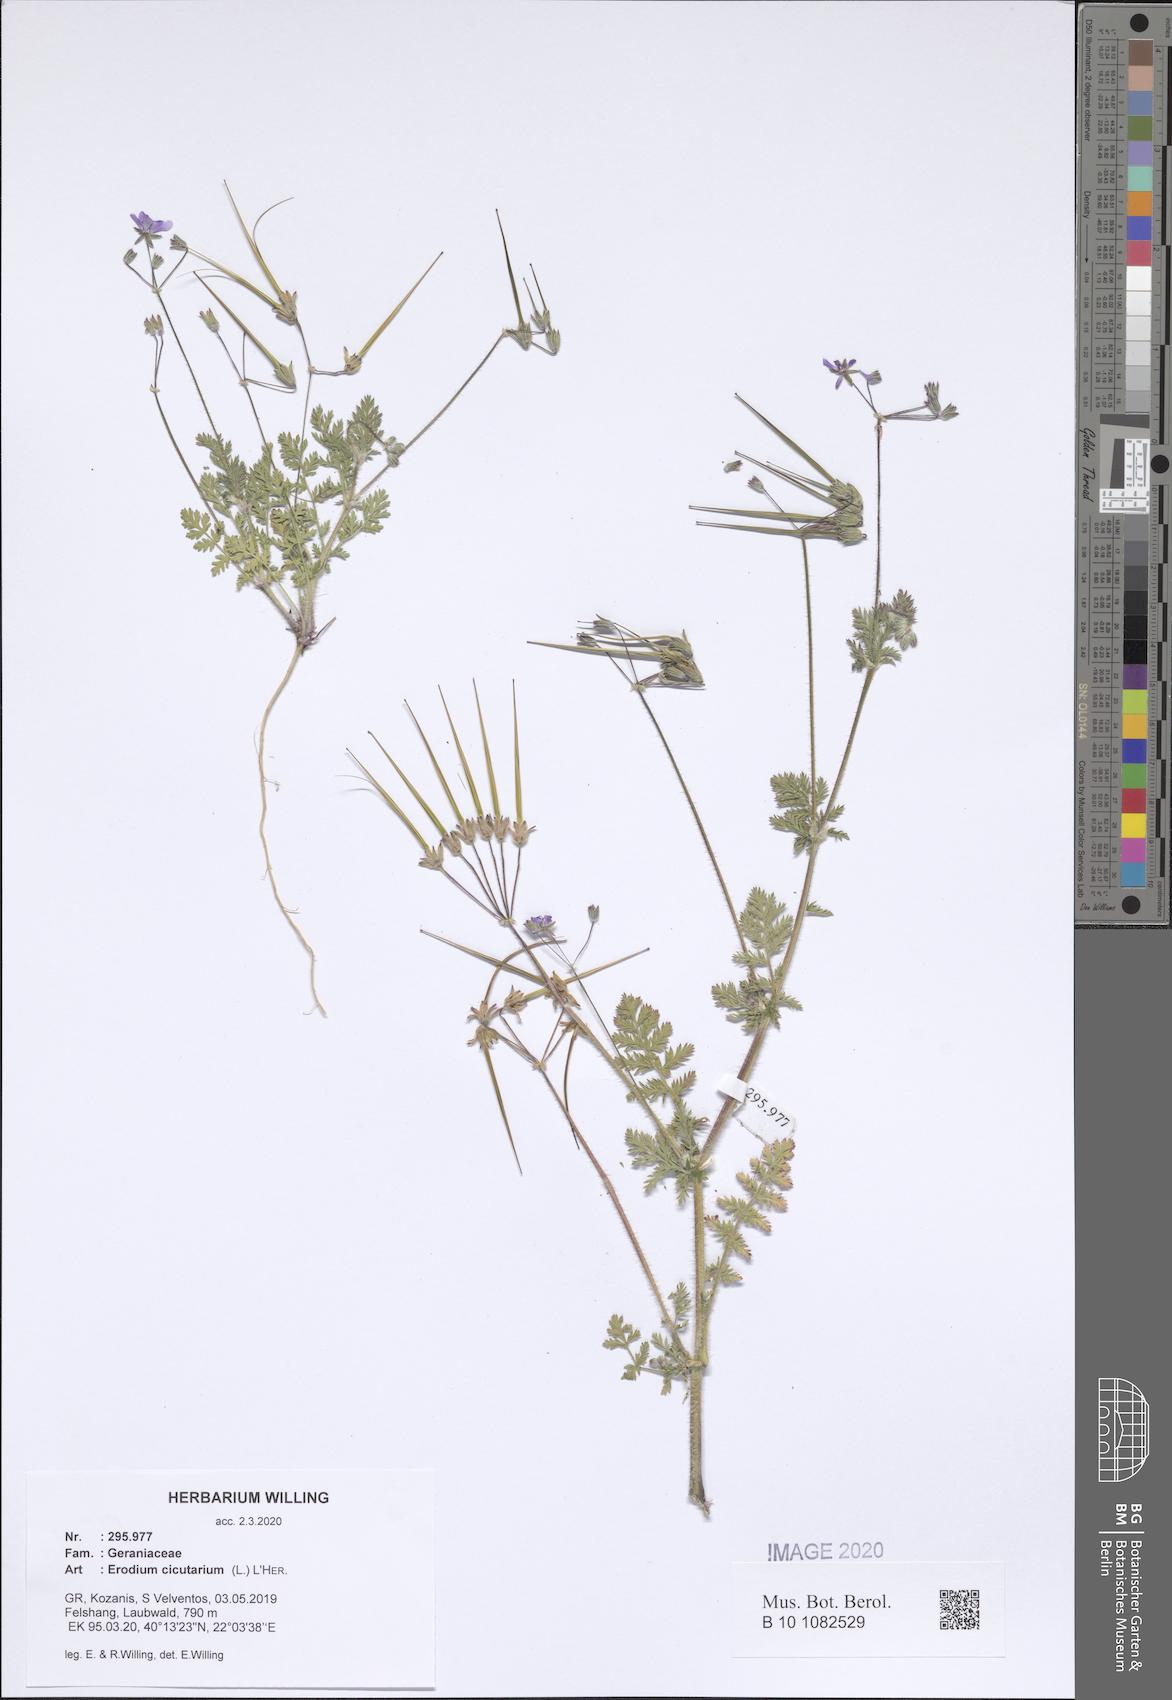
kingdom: Plantae
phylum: Tracheophyta
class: Magnoliopsida
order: Geraniales
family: Geraniaceae
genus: Erodium
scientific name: Erodium cicutarium
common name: Common stork's-bill
